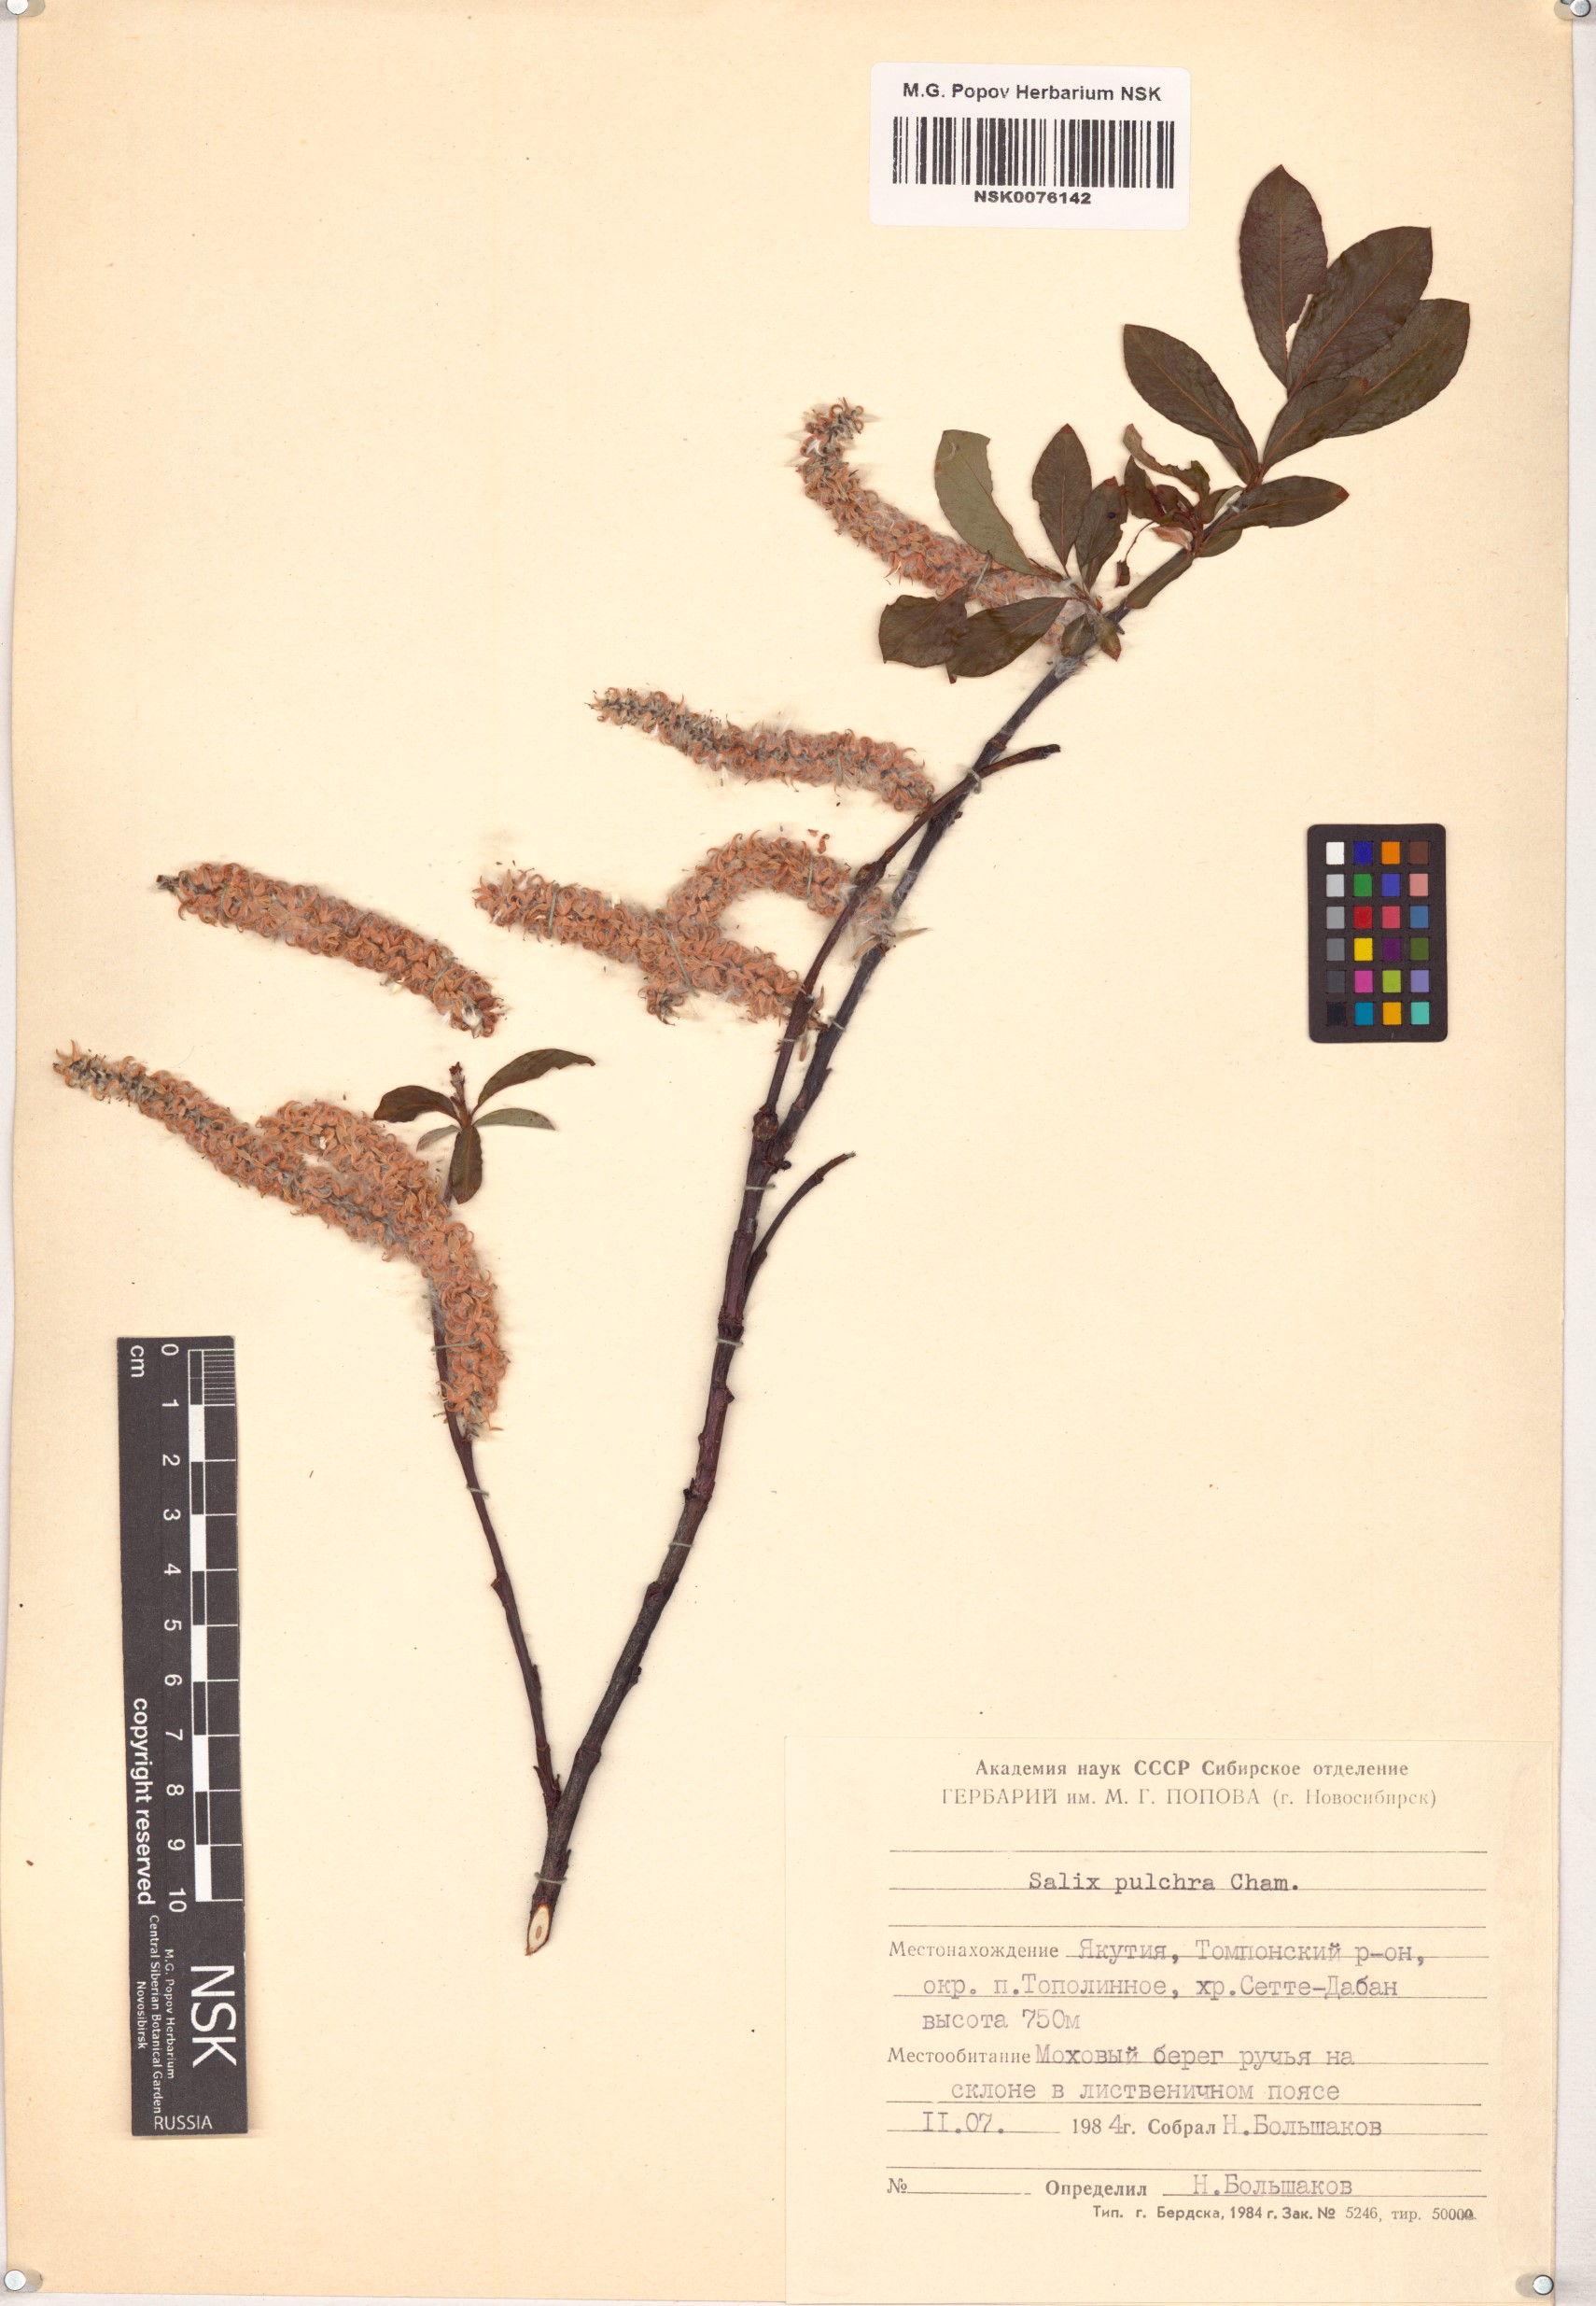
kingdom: Plantae
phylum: Tracheophyta
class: Magnoliopsida
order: Malpighiales
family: Salicaceae
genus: Salix
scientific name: Salix pulchra
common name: Diamond-leaved willow
